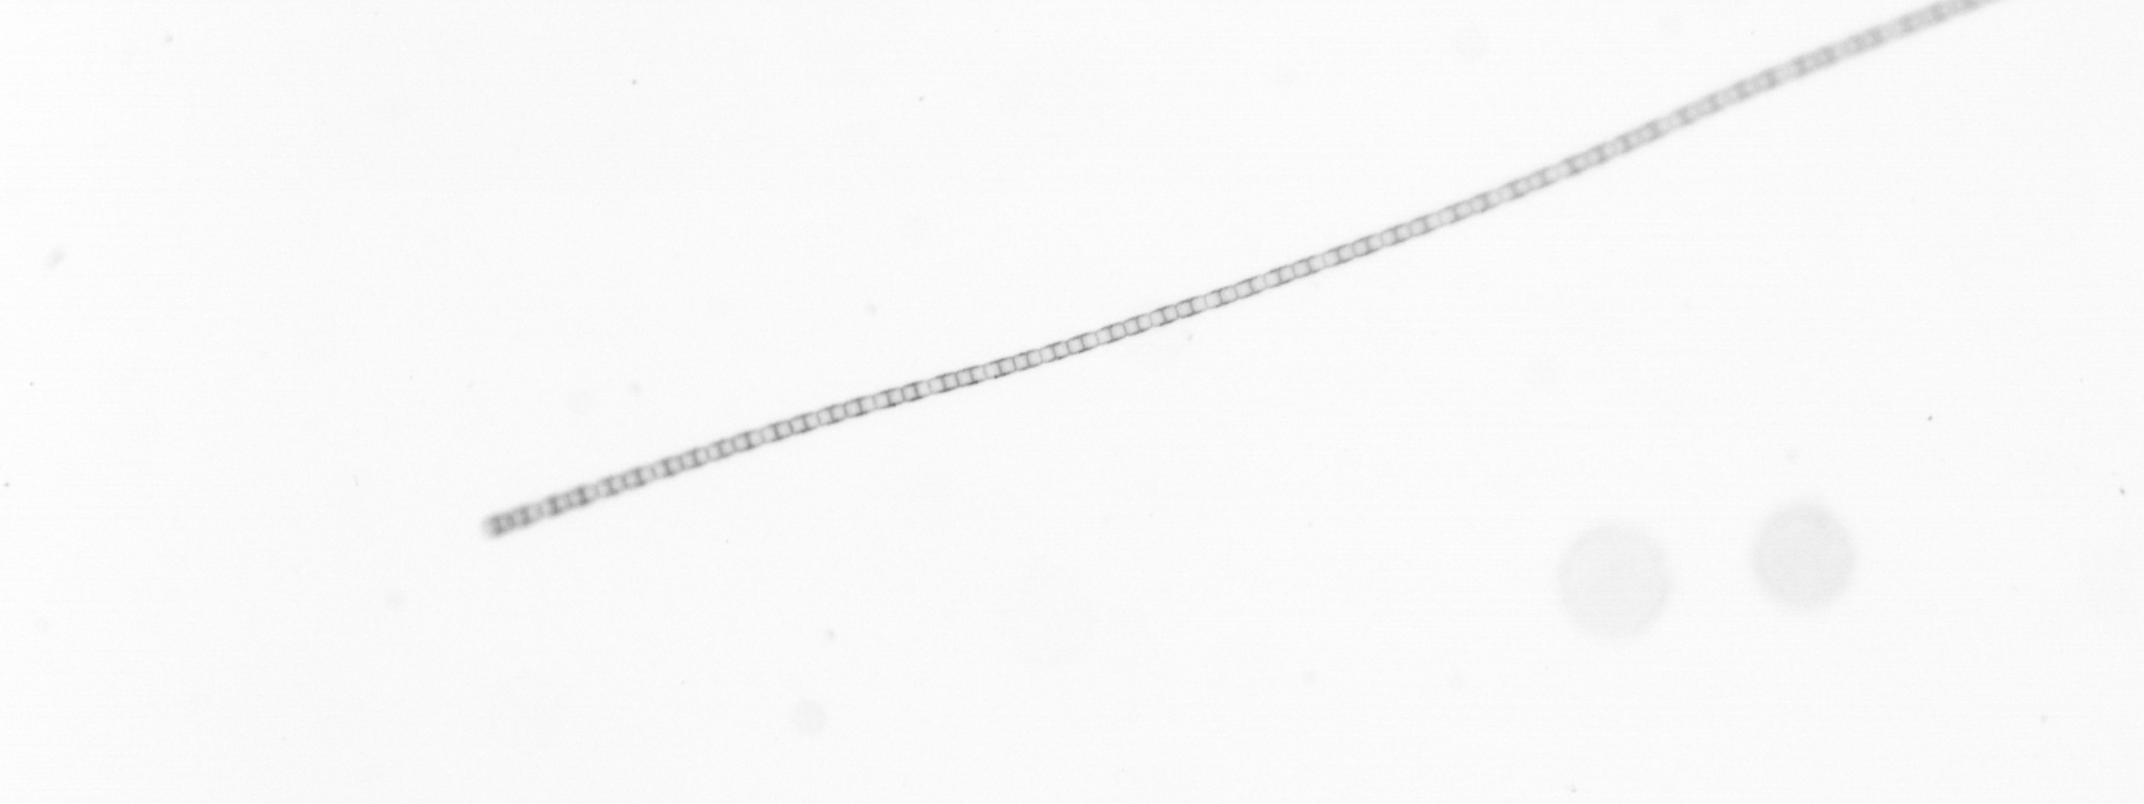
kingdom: Chromista
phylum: Ochrophyta
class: Bacillariophyceae
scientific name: Bacillariophyceae
